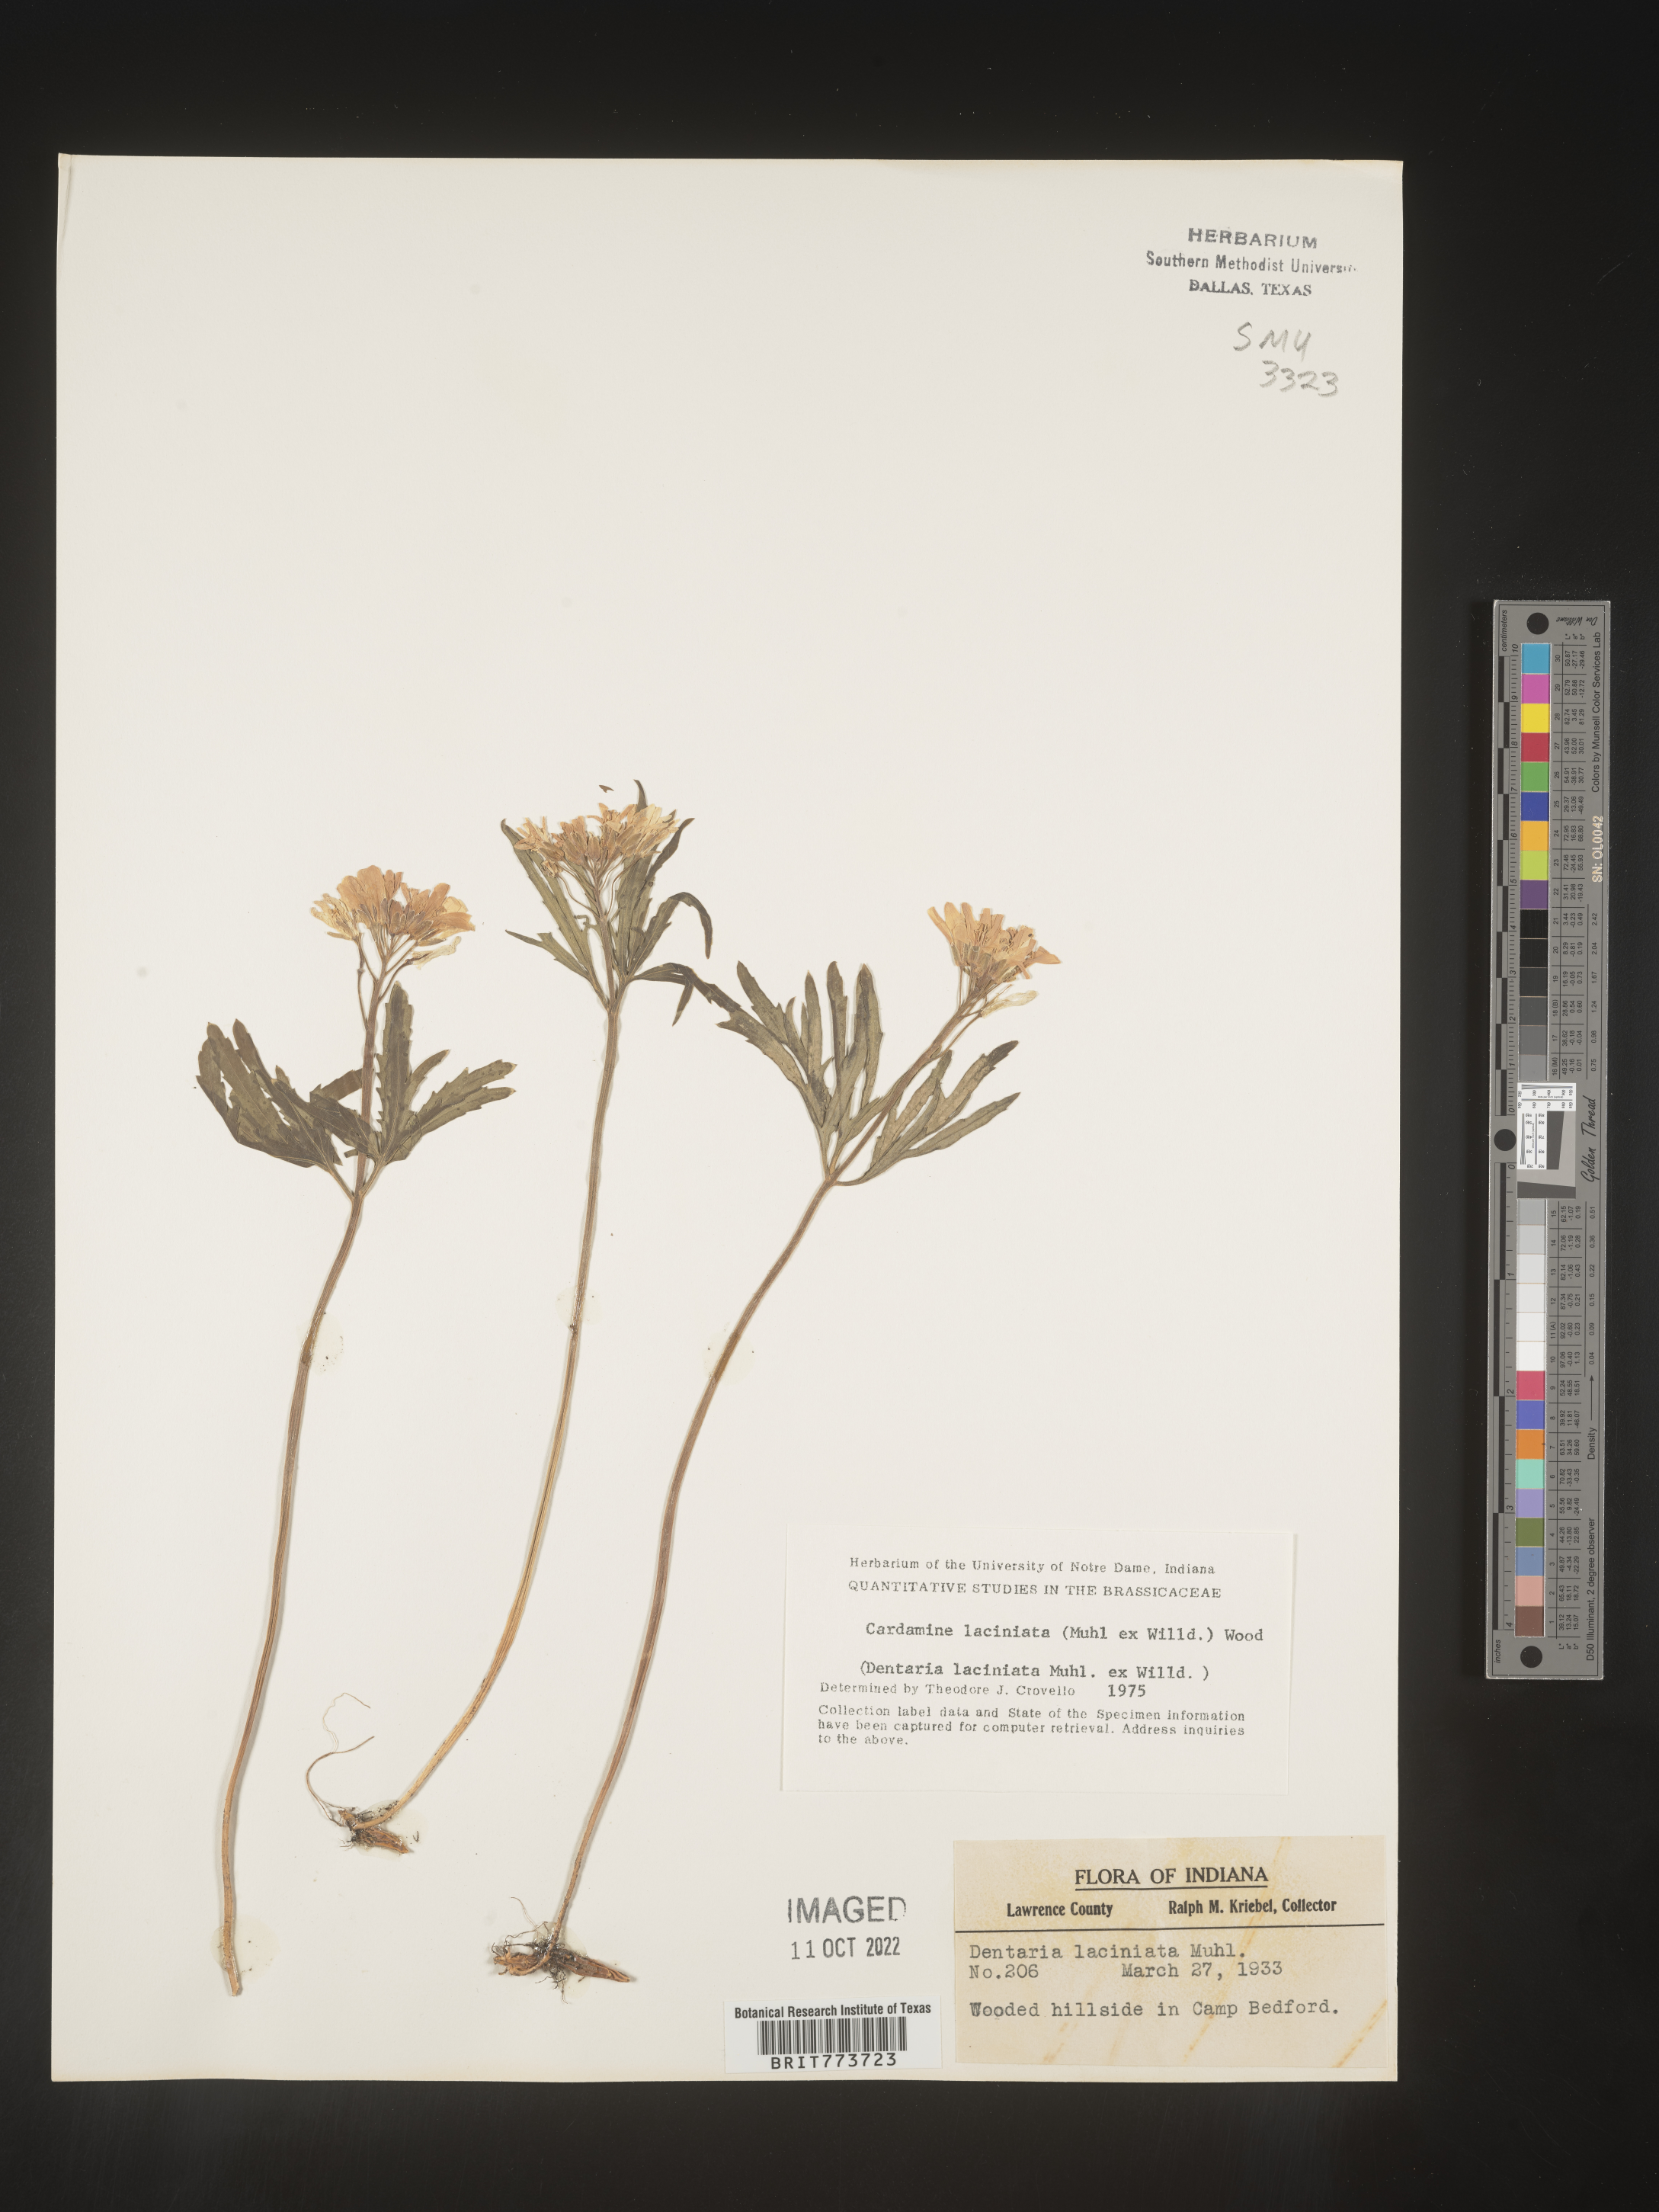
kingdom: Plantae
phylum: Tracheophyta
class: Magnoliopsida
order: Brassicales
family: Brassicaceae
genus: Rorippa
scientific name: Rorippa laciniata
